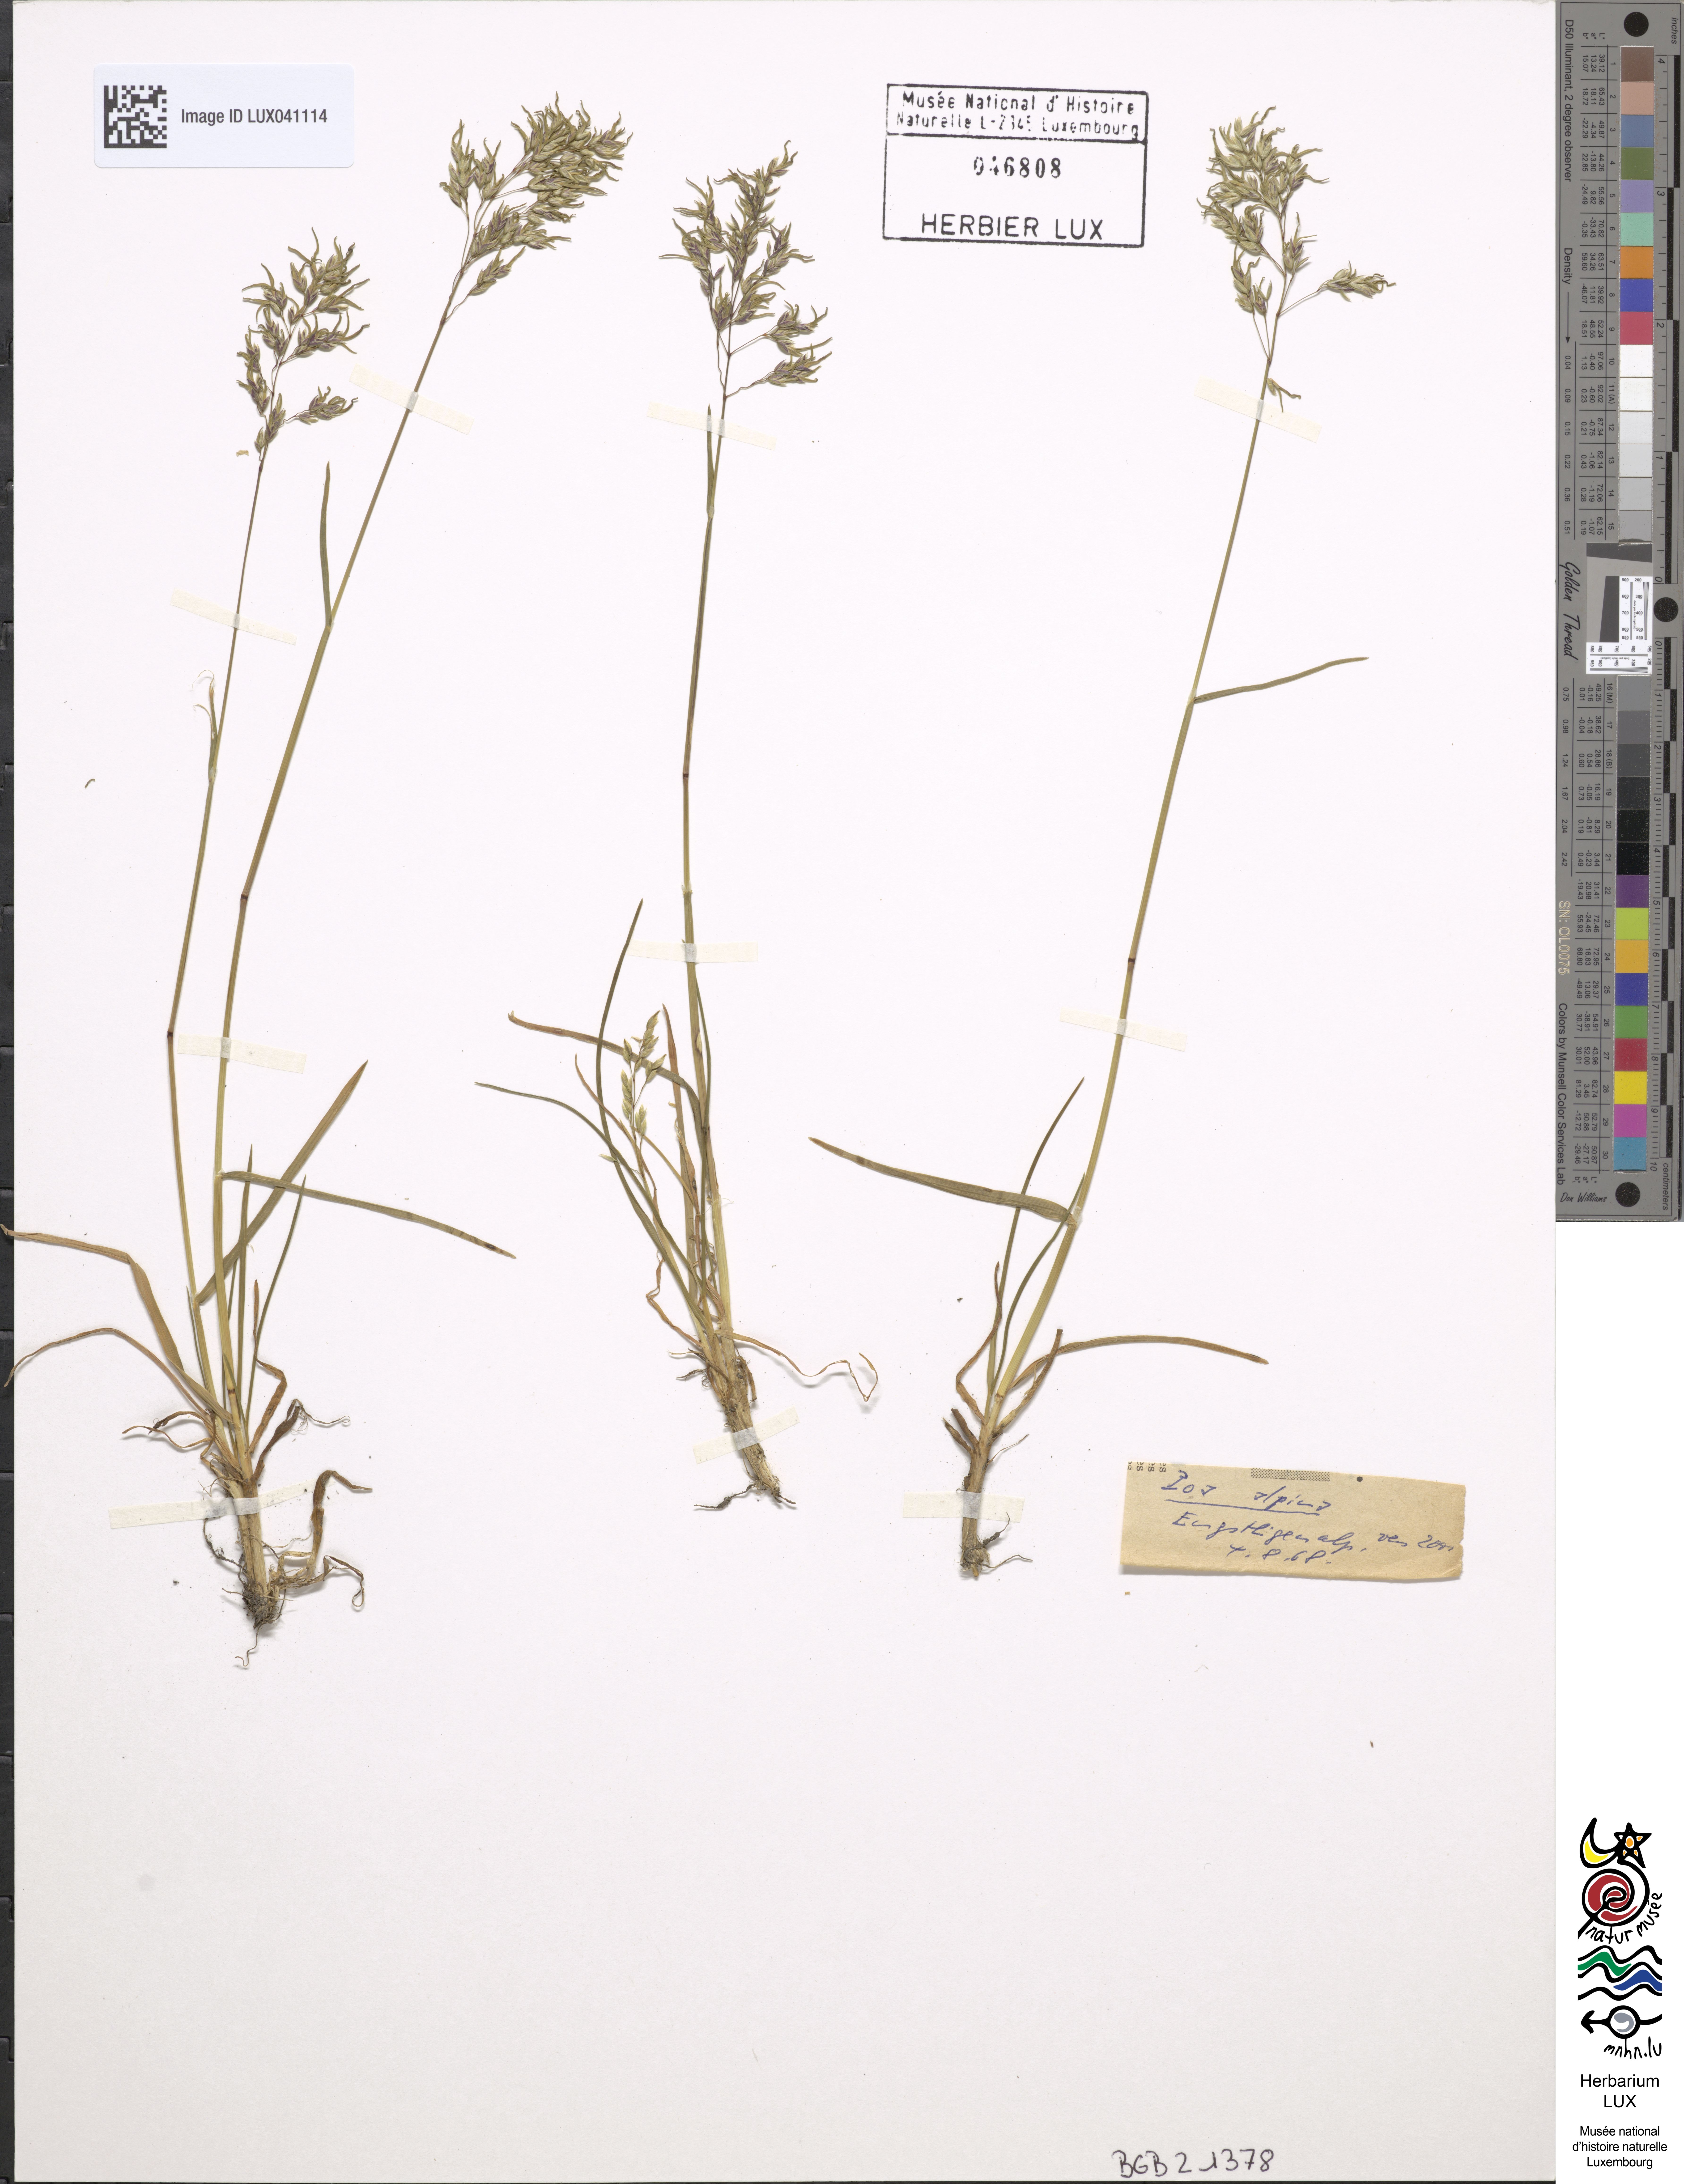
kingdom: Plantae
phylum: Tracheophyta
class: Liliopsida
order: Poales
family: Poaceae
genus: Poa
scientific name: Poa alpina
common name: Alpine bluegrass
